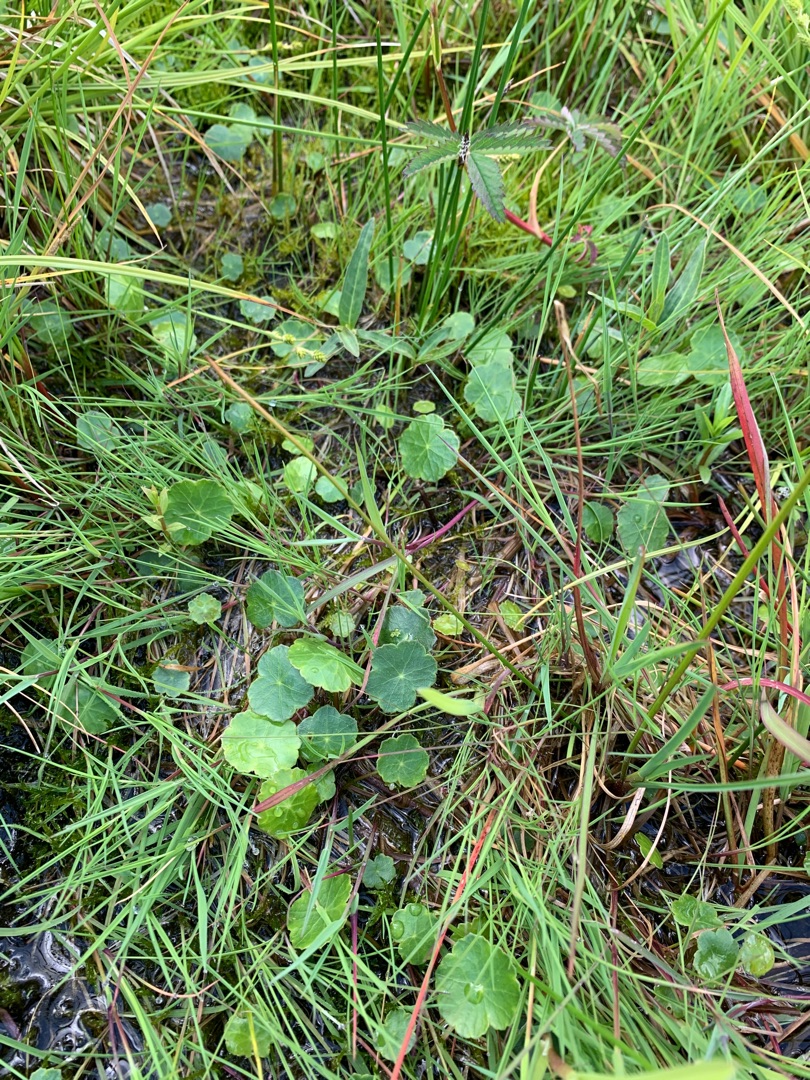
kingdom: Plantae
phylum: Tracheophyta
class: Magnoliopsida
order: Apiales
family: Araliaceae
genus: Hydrocotyle
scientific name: Hydrocotyle vulgaris
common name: Vandnavle
